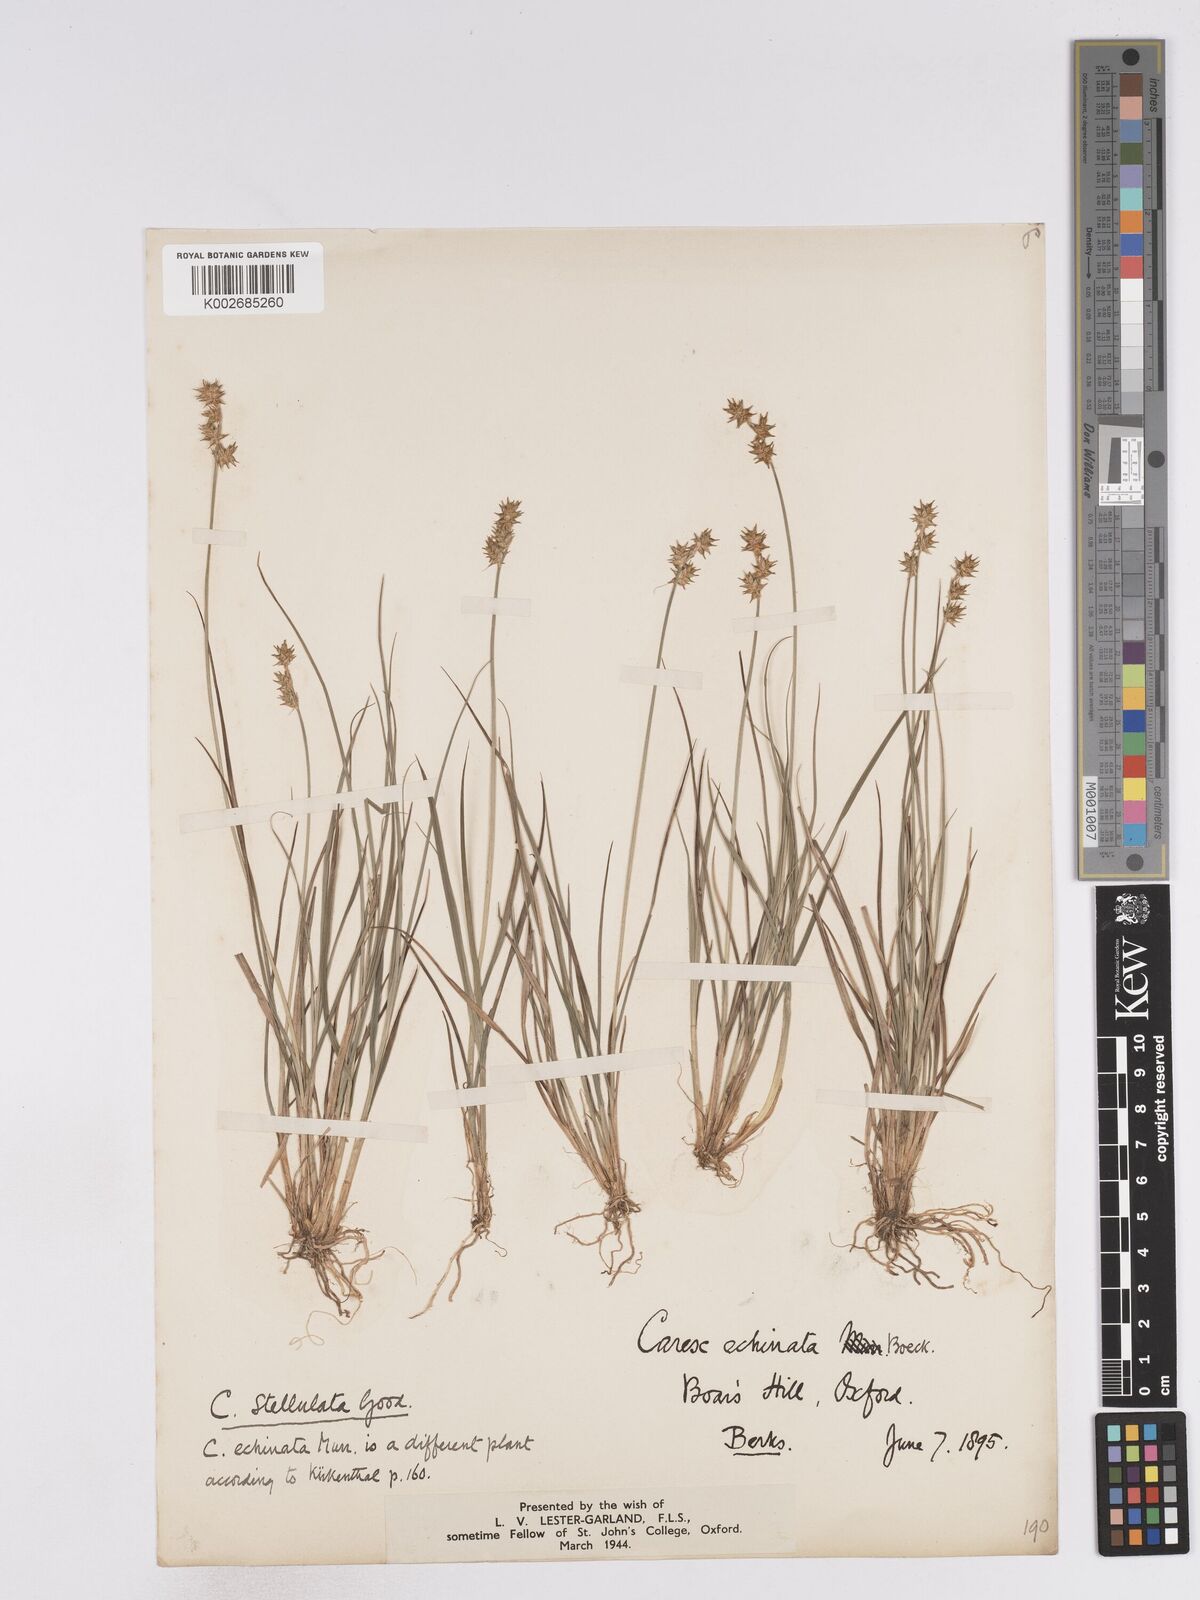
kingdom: Plantae
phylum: Tracheophyta
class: Liliopsida
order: Poales
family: Cyperaceae
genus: Carex
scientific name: Carex echinata
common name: Star sedge
